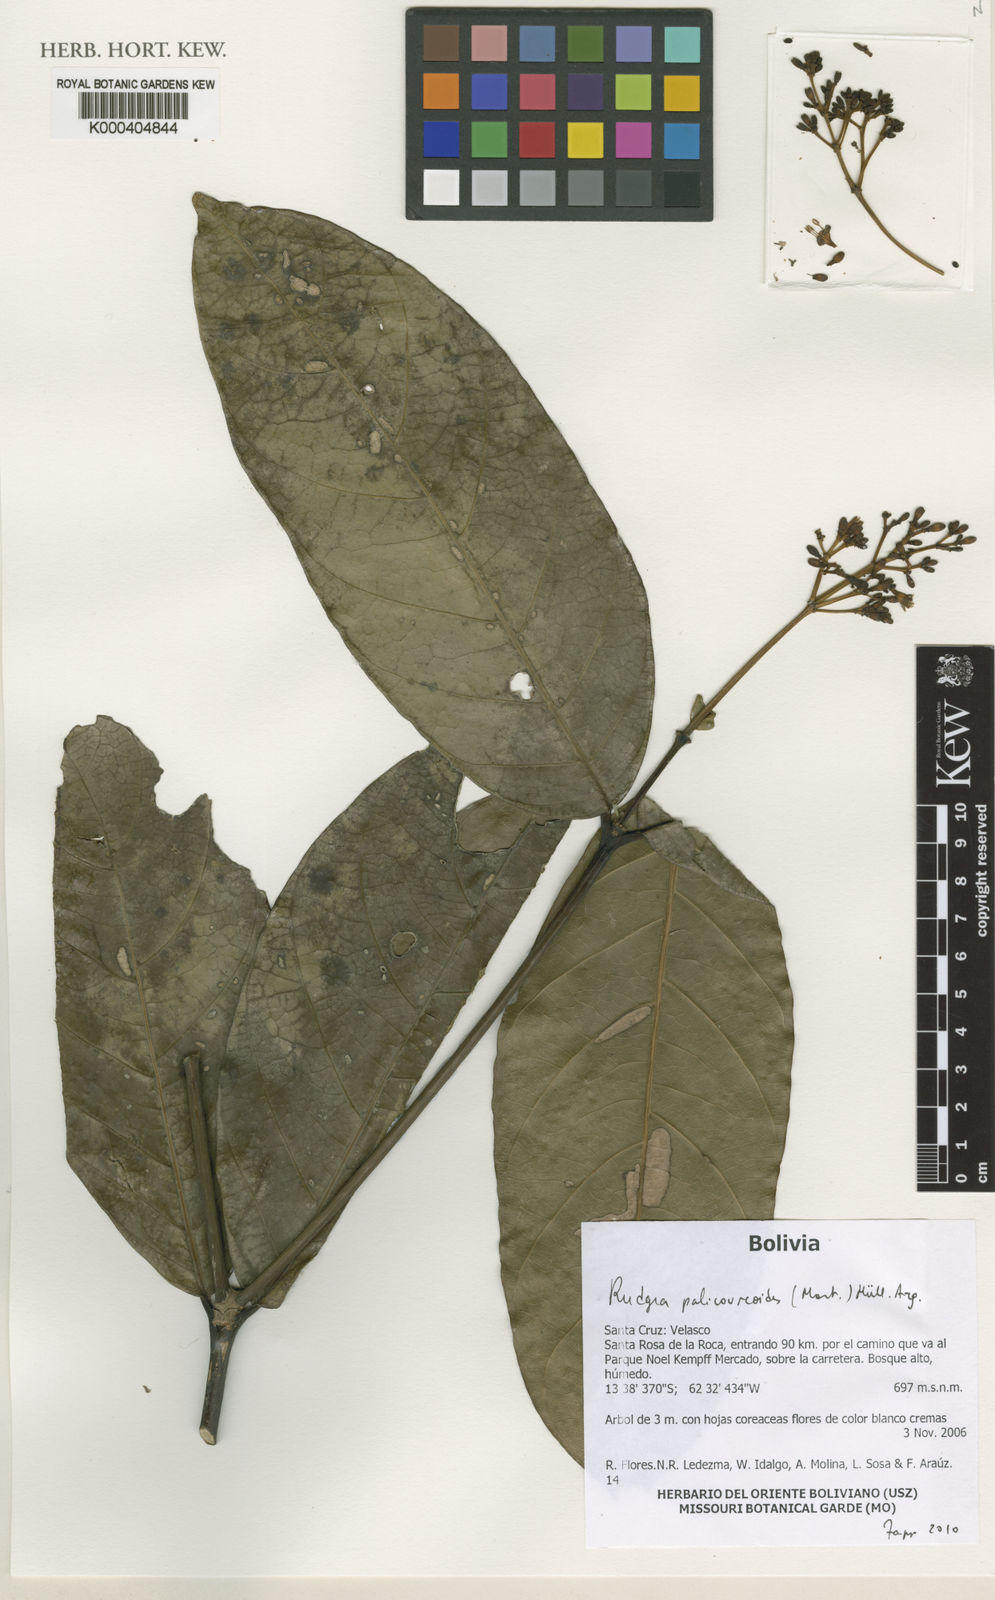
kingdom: Plantae
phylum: Tracheophyta
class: Magnoliopsida
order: Gentianales
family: Rubiaceae
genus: Rudgea
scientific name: Rudgea palicoureoides
